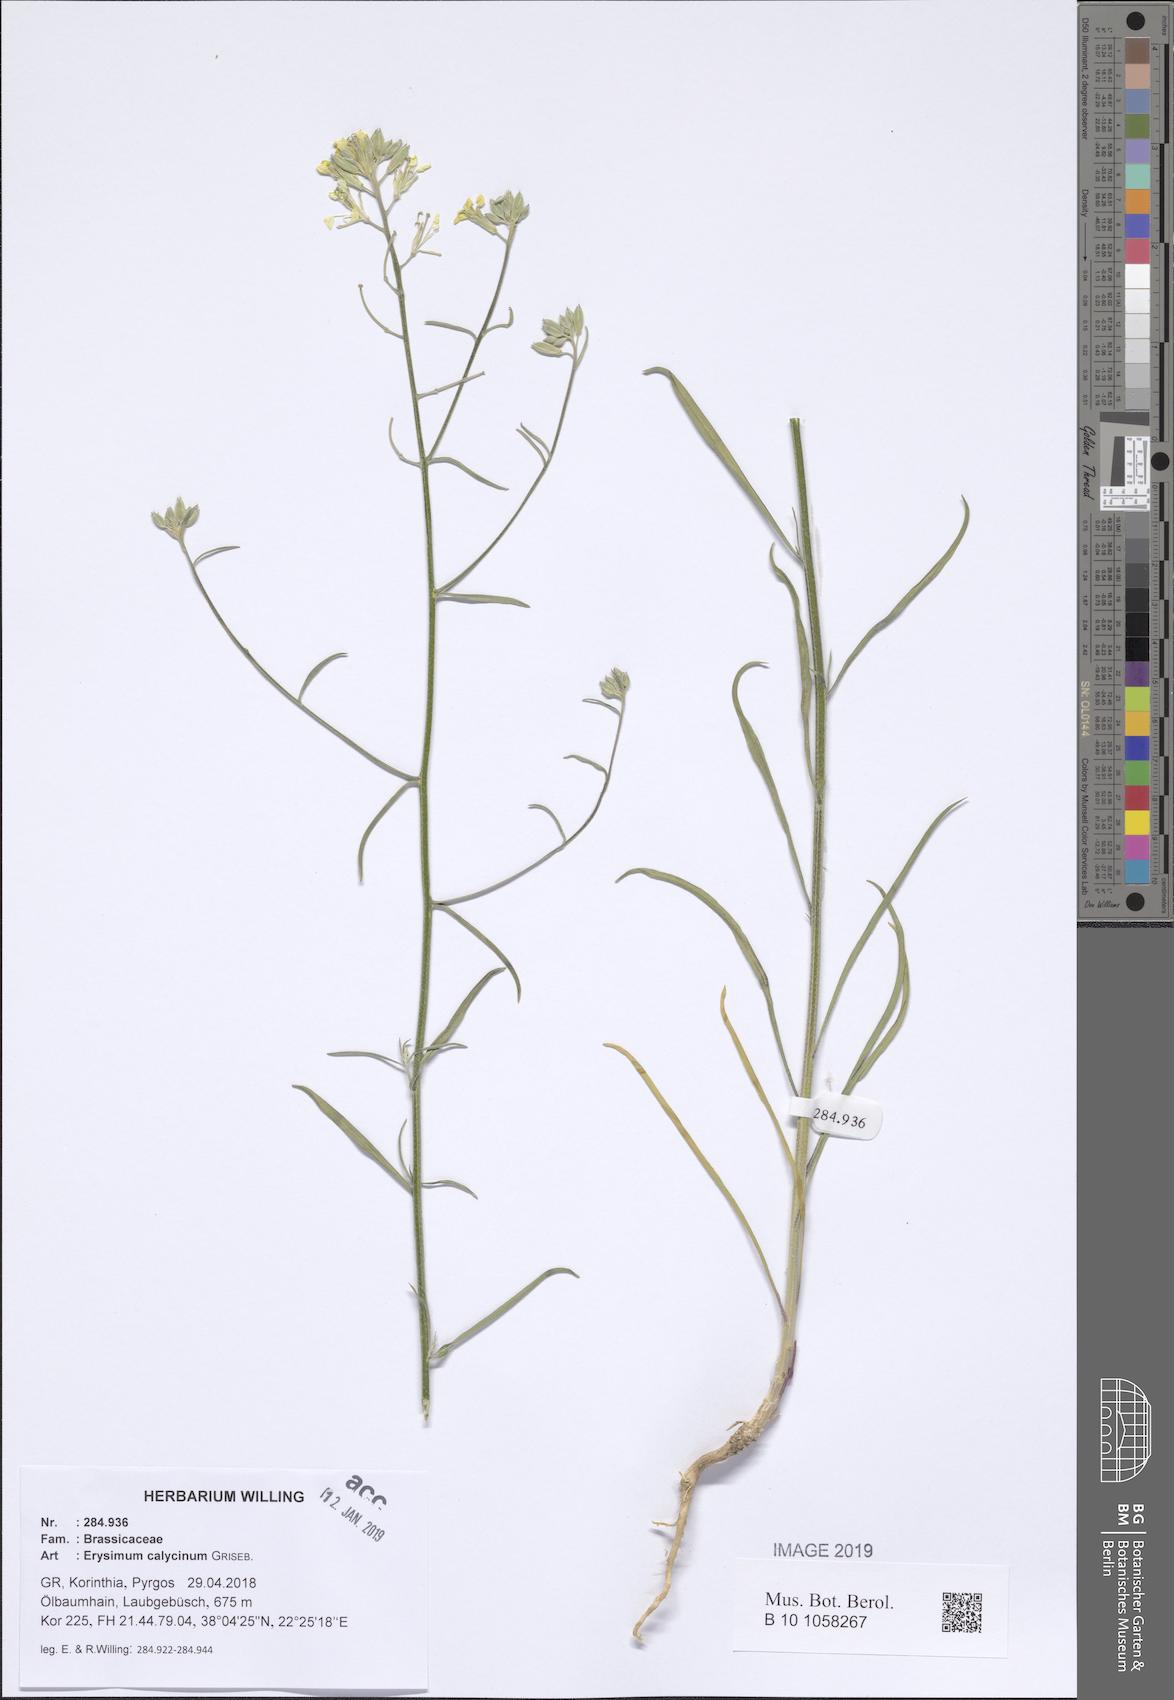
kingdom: Plantae
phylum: Tracheophyta
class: Magnoliopsida
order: Brassicales
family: Brassicaceae
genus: Erysimum
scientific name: Erysimum calycinum
